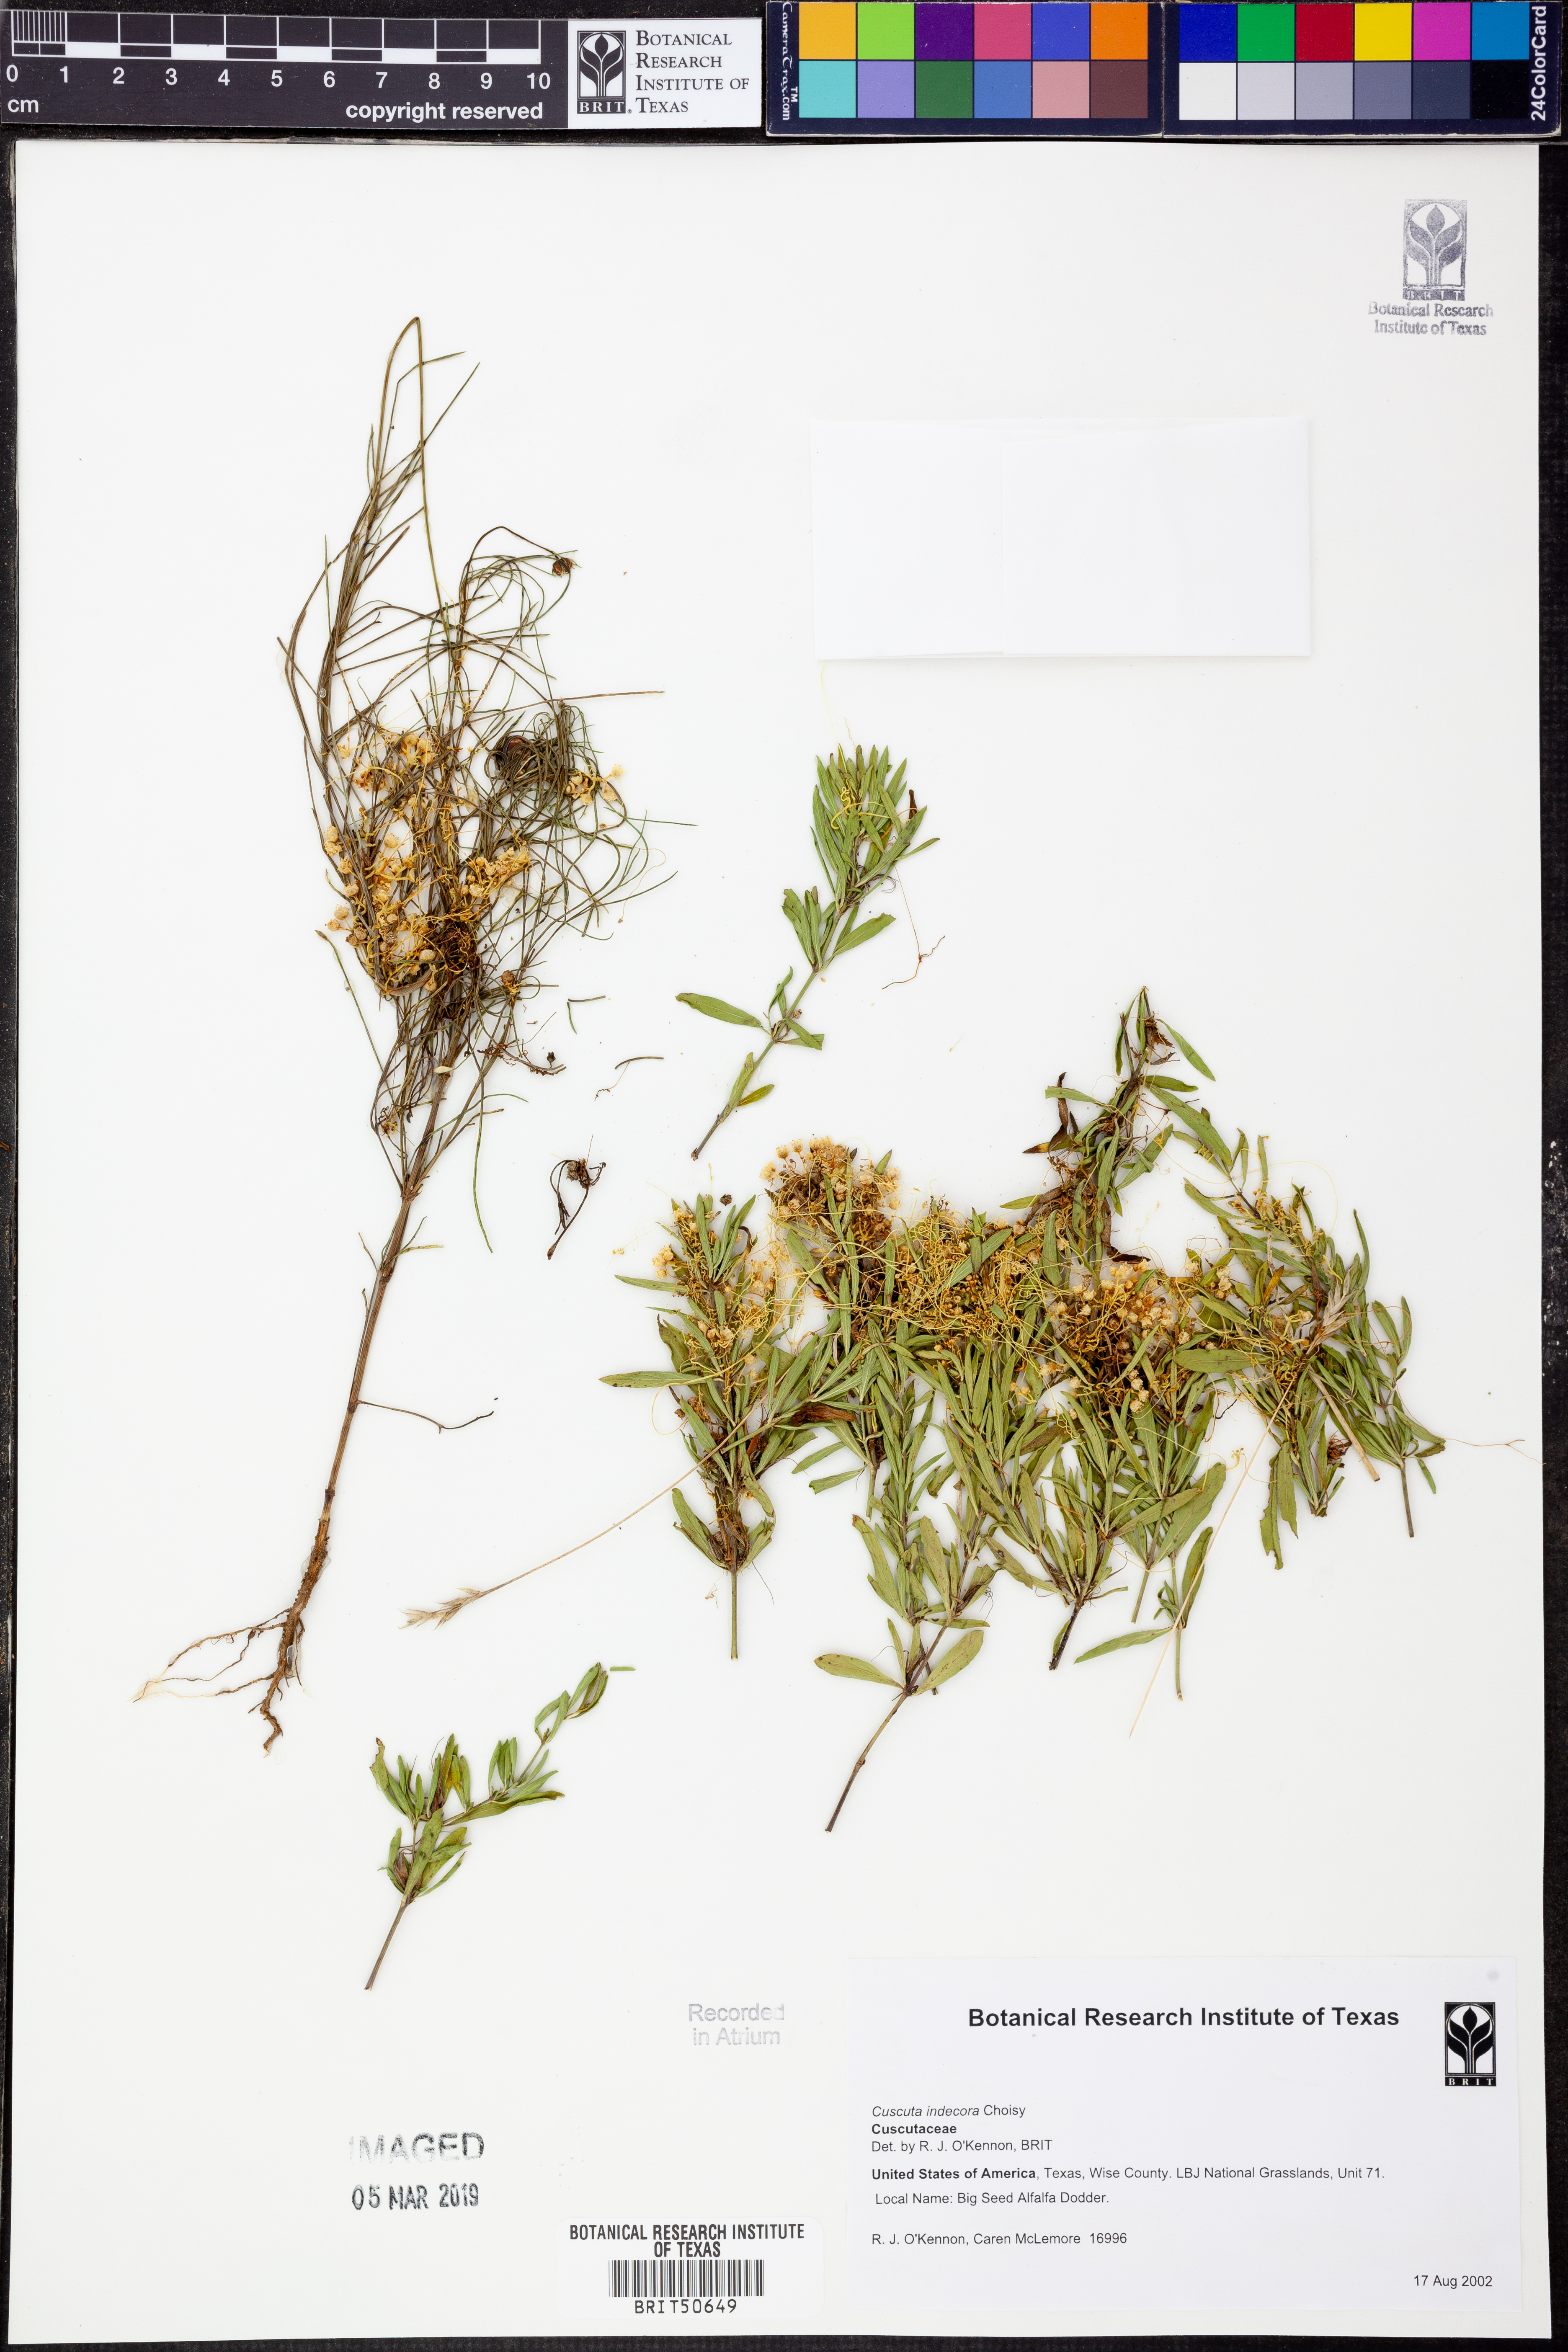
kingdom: Plantae
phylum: Tracheophyta
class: Magnoliopsida
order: Solanales
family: Convolvulaceae
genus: Cuscuta
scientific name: Cuscuta indecora
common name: Large-seed dodder
